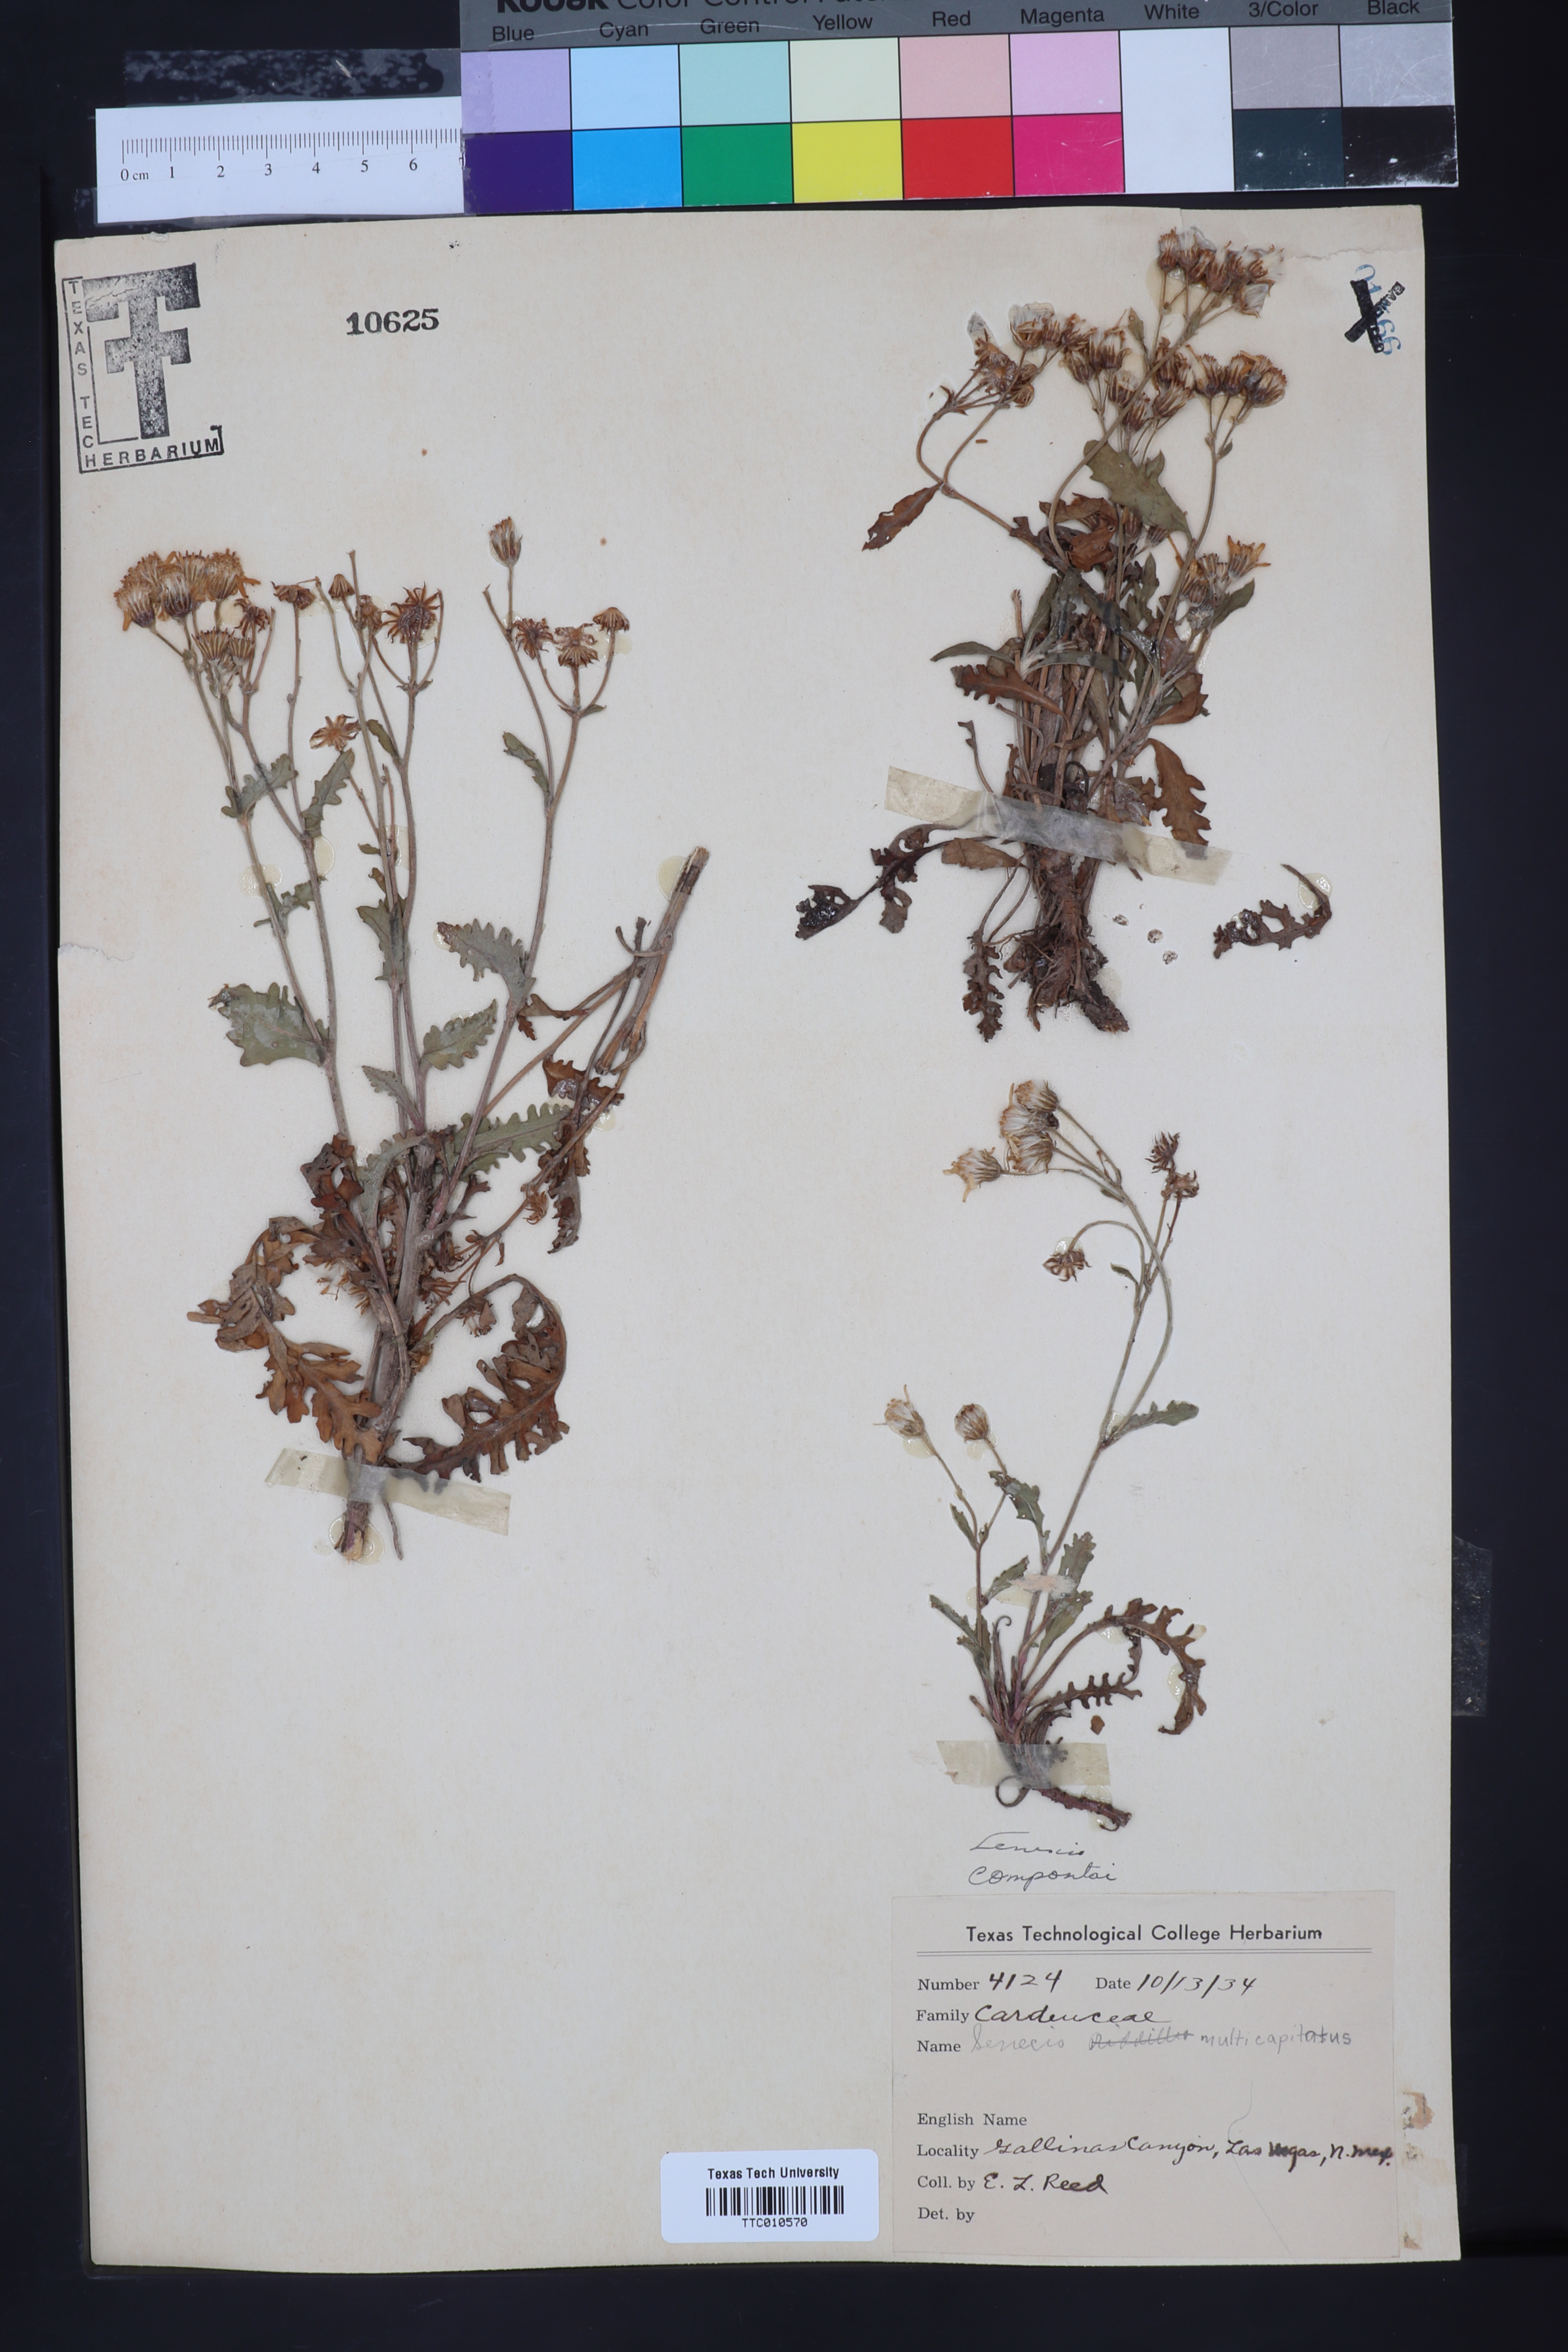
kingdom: Plantae
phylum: Tracheophyta
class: Magnoliopsida
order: Asterales
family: Asteraceae
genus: Senecio
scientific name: Senecio spartioides
